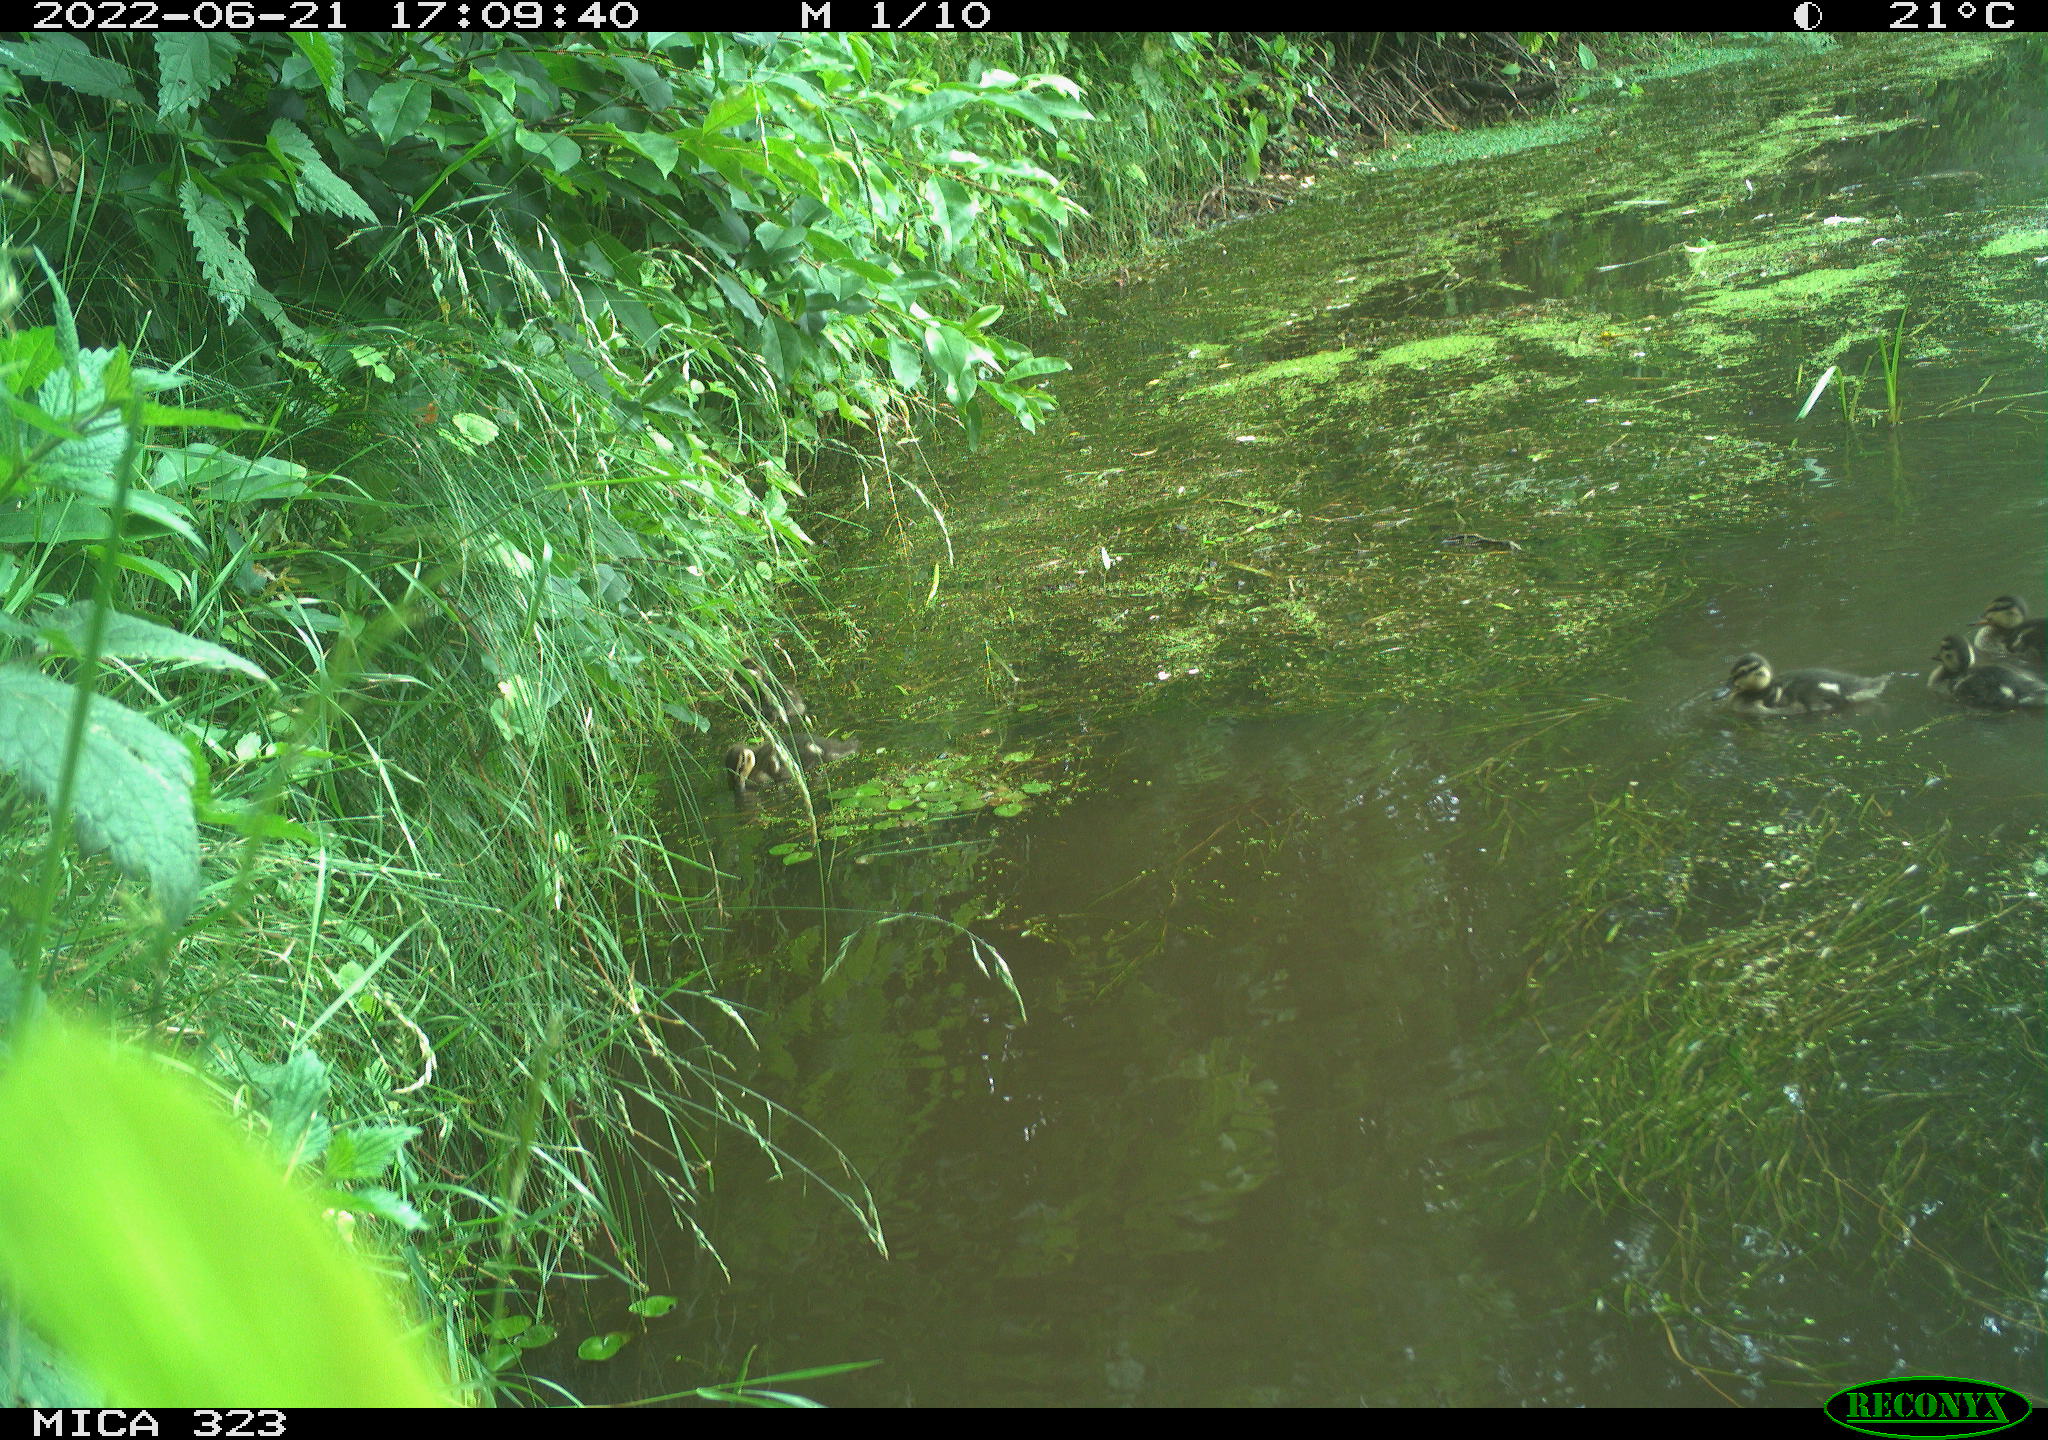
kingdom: Animalia
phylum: Chordata
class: Aves
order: Anseriformes
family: Anatidae
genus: Anas
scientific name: Anas platyrhynchos
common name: Mallard
